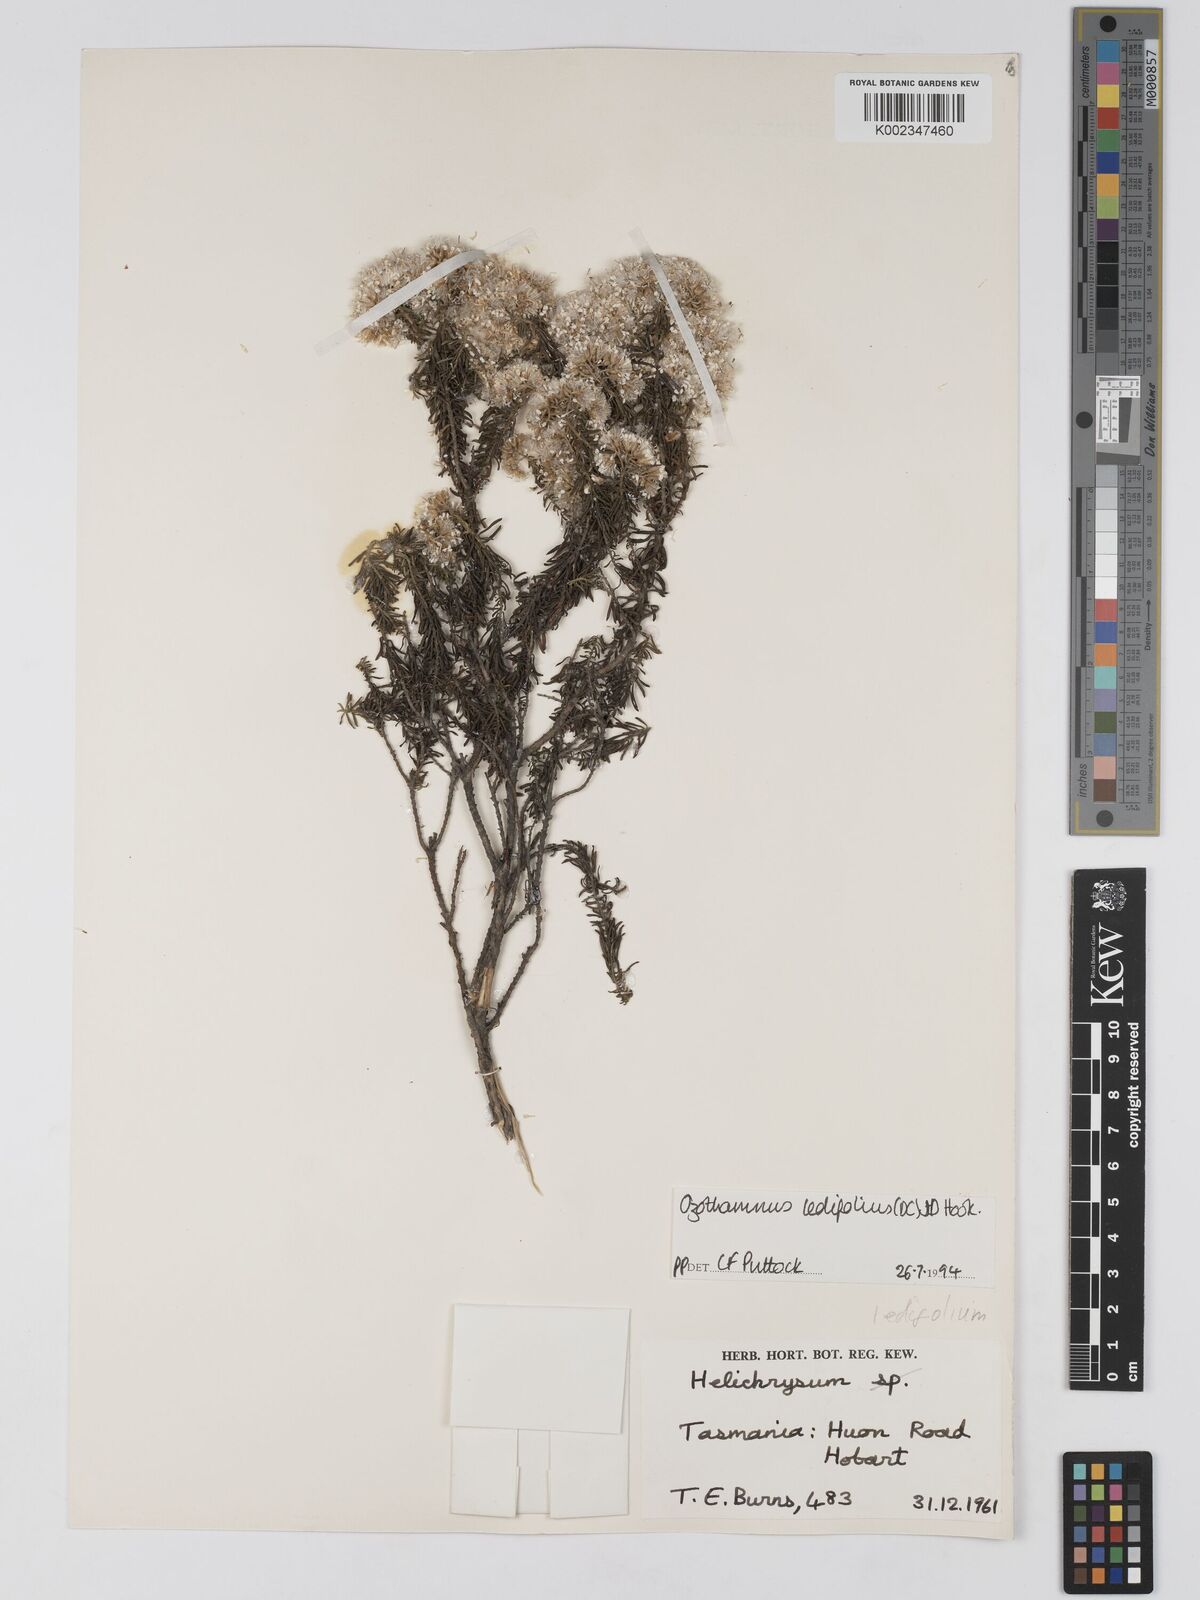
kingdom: Plantae
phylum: Tracheophyta
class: Magnoliopsida
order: Asterales
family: Asteraceae
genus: Ozothamnus
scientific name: Ozothamnus ledifolius
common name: Kerosene-weed
